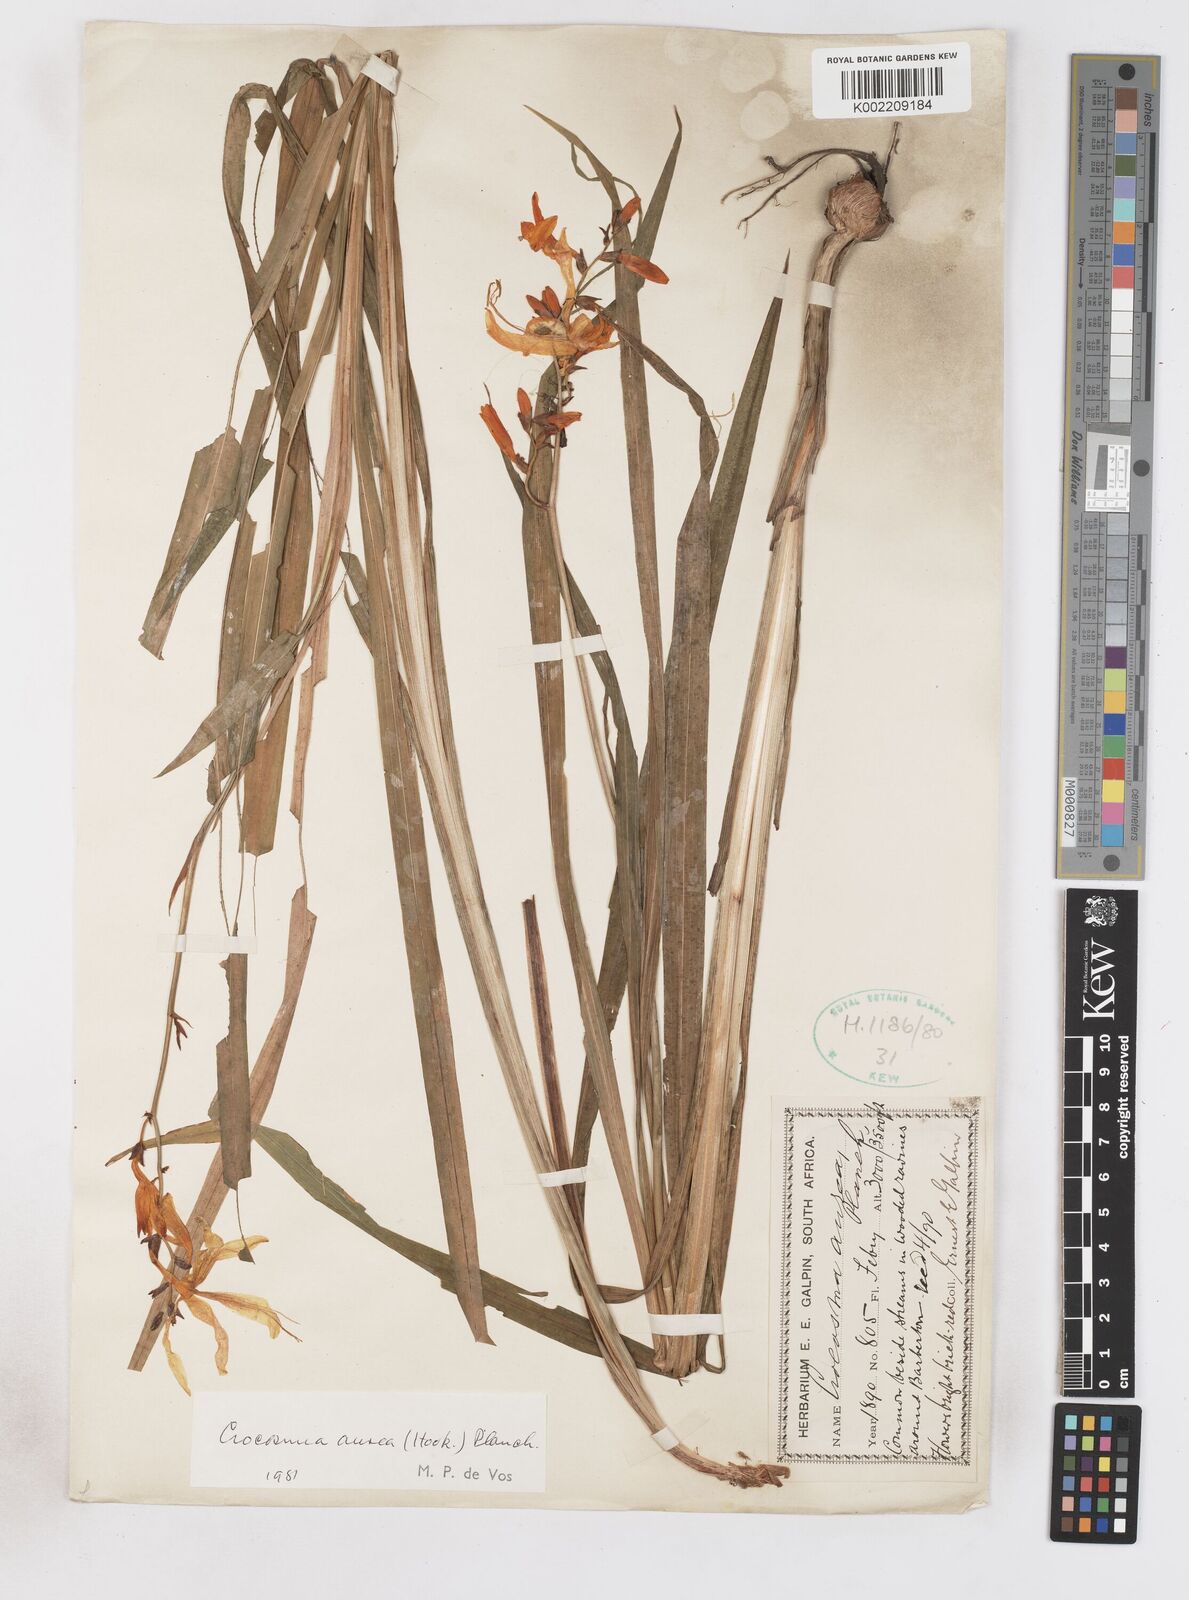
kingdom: Plantae
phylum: Tracheophyta
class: Liliopsida
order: Asparagales
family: Iridaceae
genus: Crocosmia
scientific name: Crocosmia aurea
